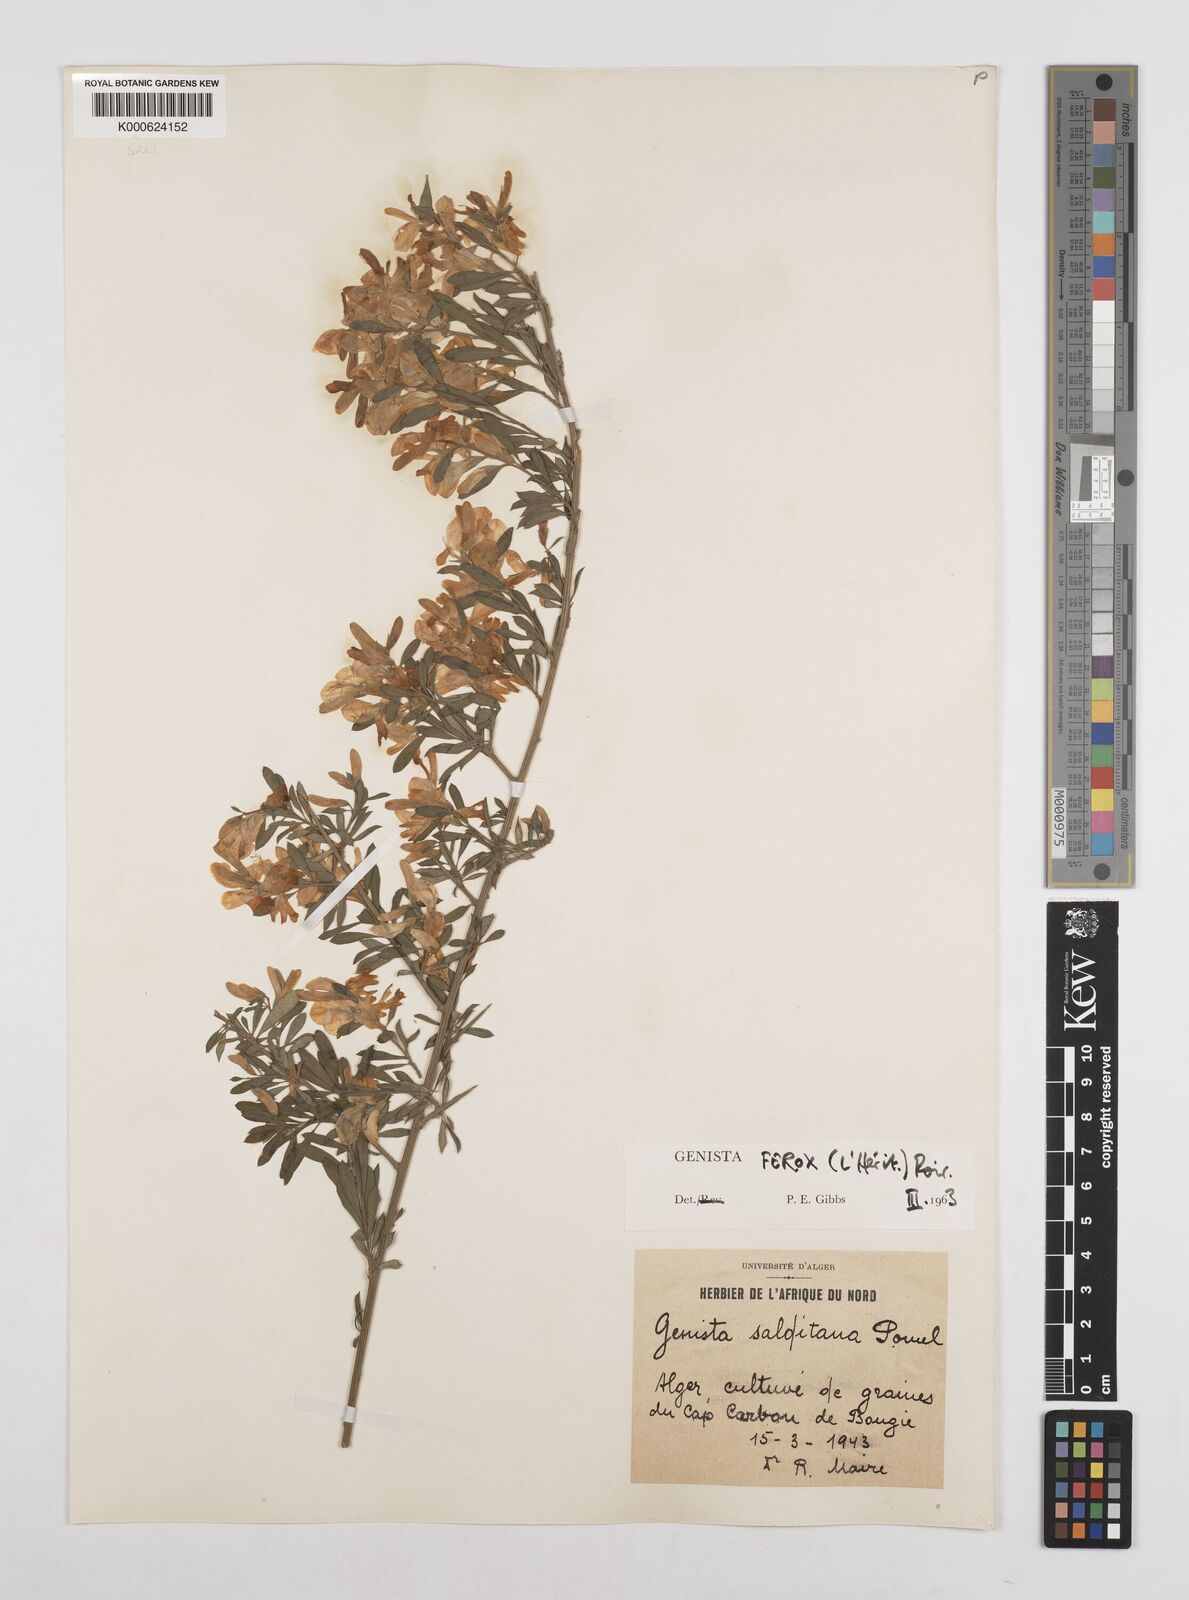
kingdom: Plantae
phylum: Tracheophyta
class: Magnoliopsida
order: Fabales
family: Fabaceae
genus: Genista
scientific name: Genista ferox
